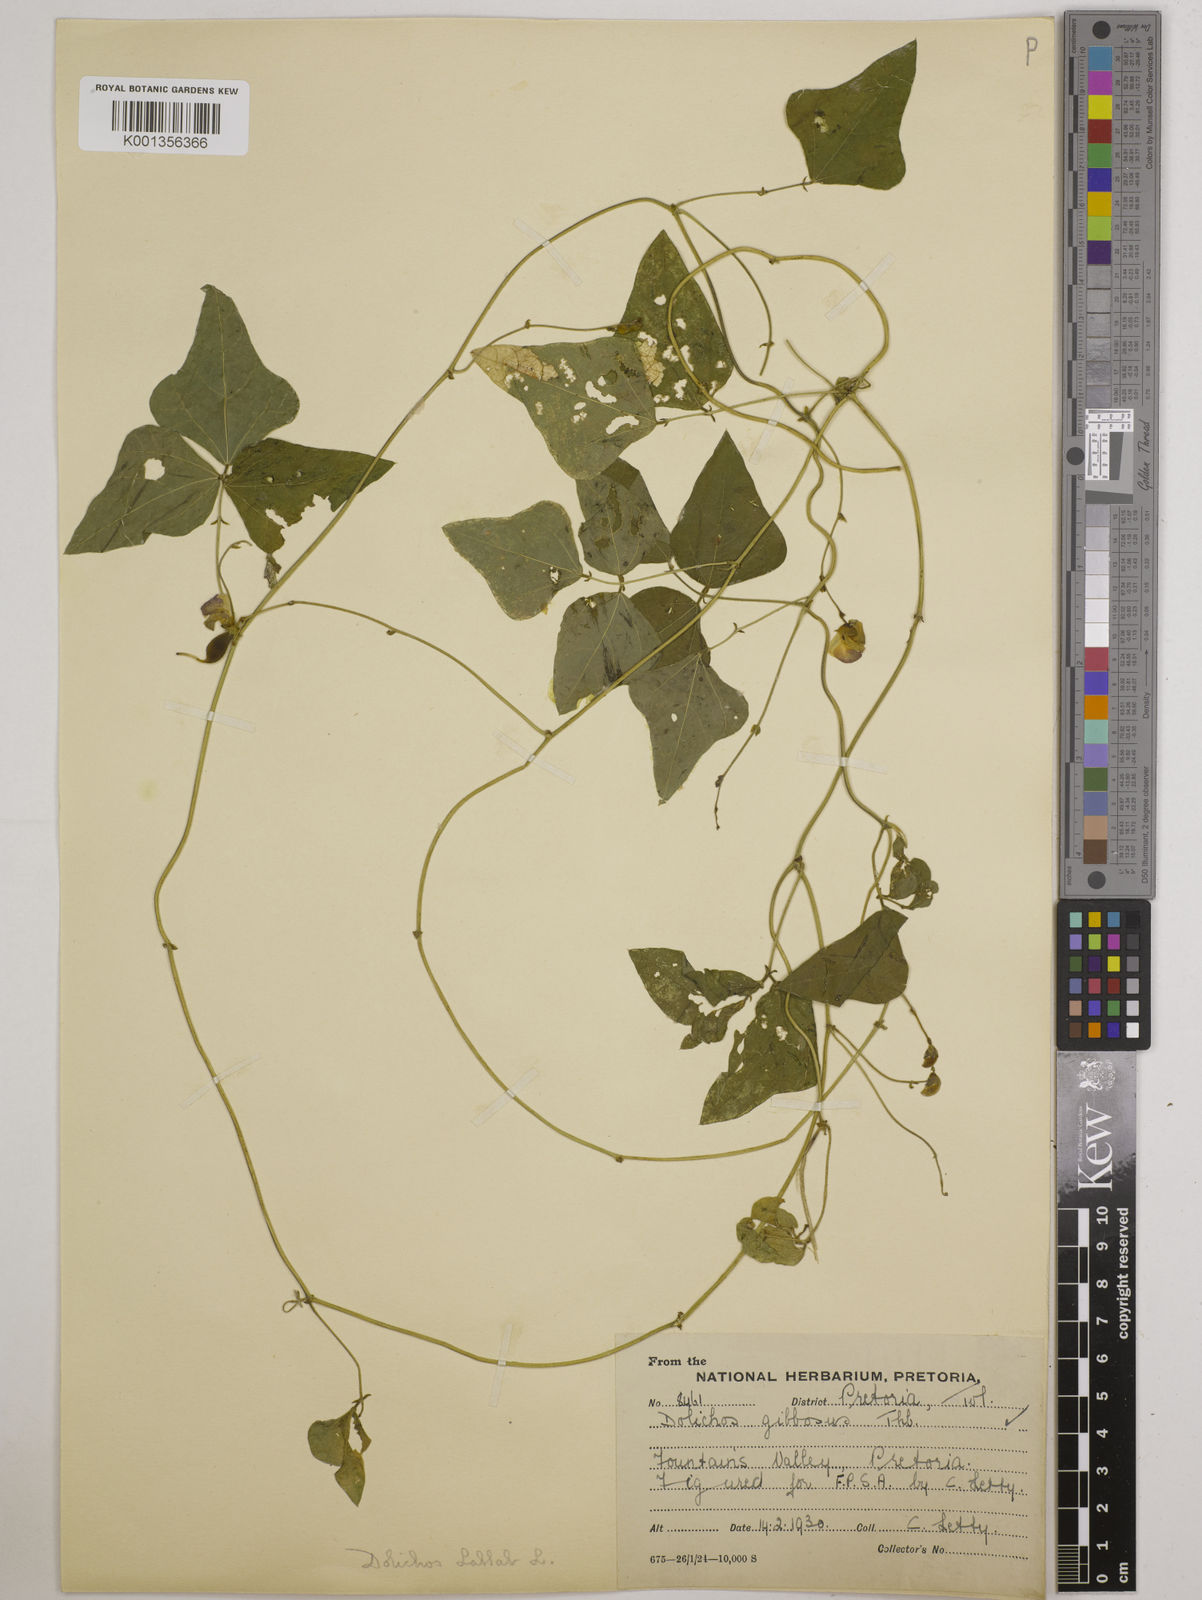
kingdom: Plantae
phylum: Tracheophyta
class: Magnoliopsida
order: Fabales
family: Fabaceae
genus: Lablab
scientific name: Lablab purpureus
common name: Lablab-bean
